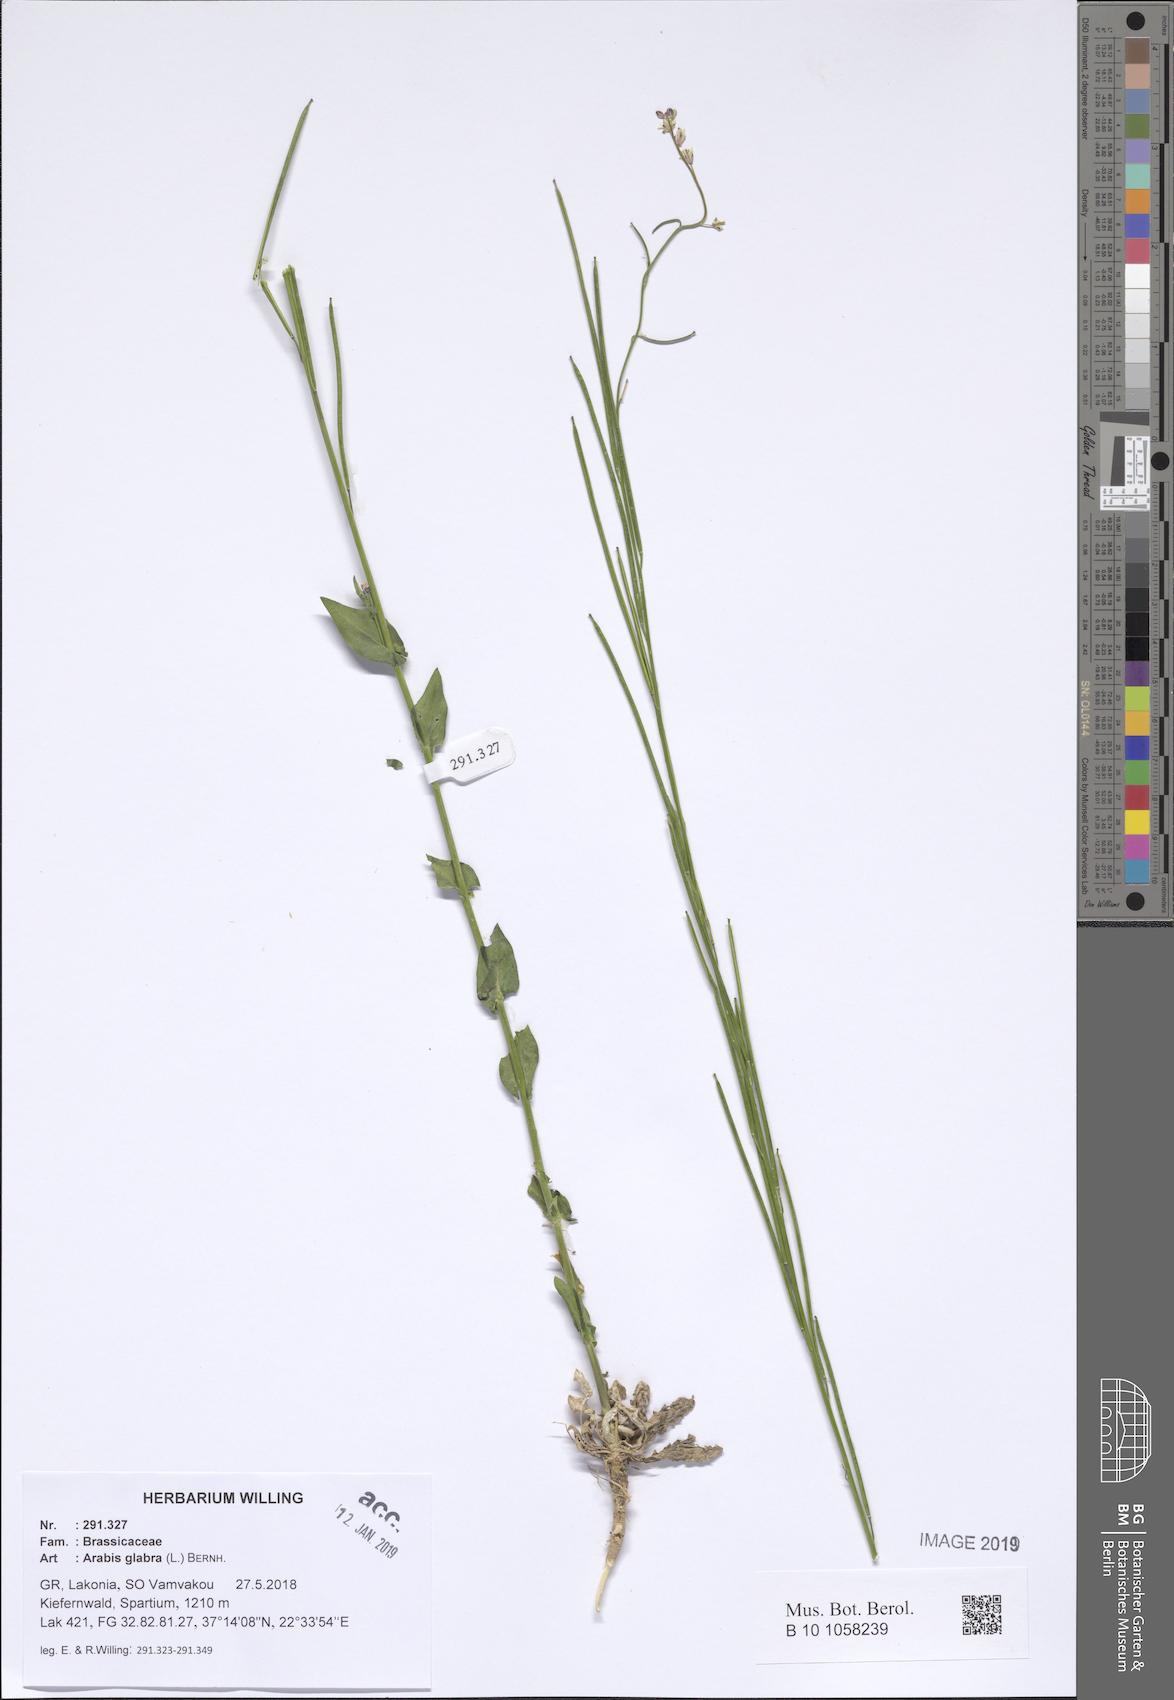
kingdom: Plantae
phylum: Tracheophyta
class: Magnoliopsida
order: Brassicales
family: Brassicaceae
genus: Turritis
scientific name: Turritis glabra
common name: Tower rockcress
